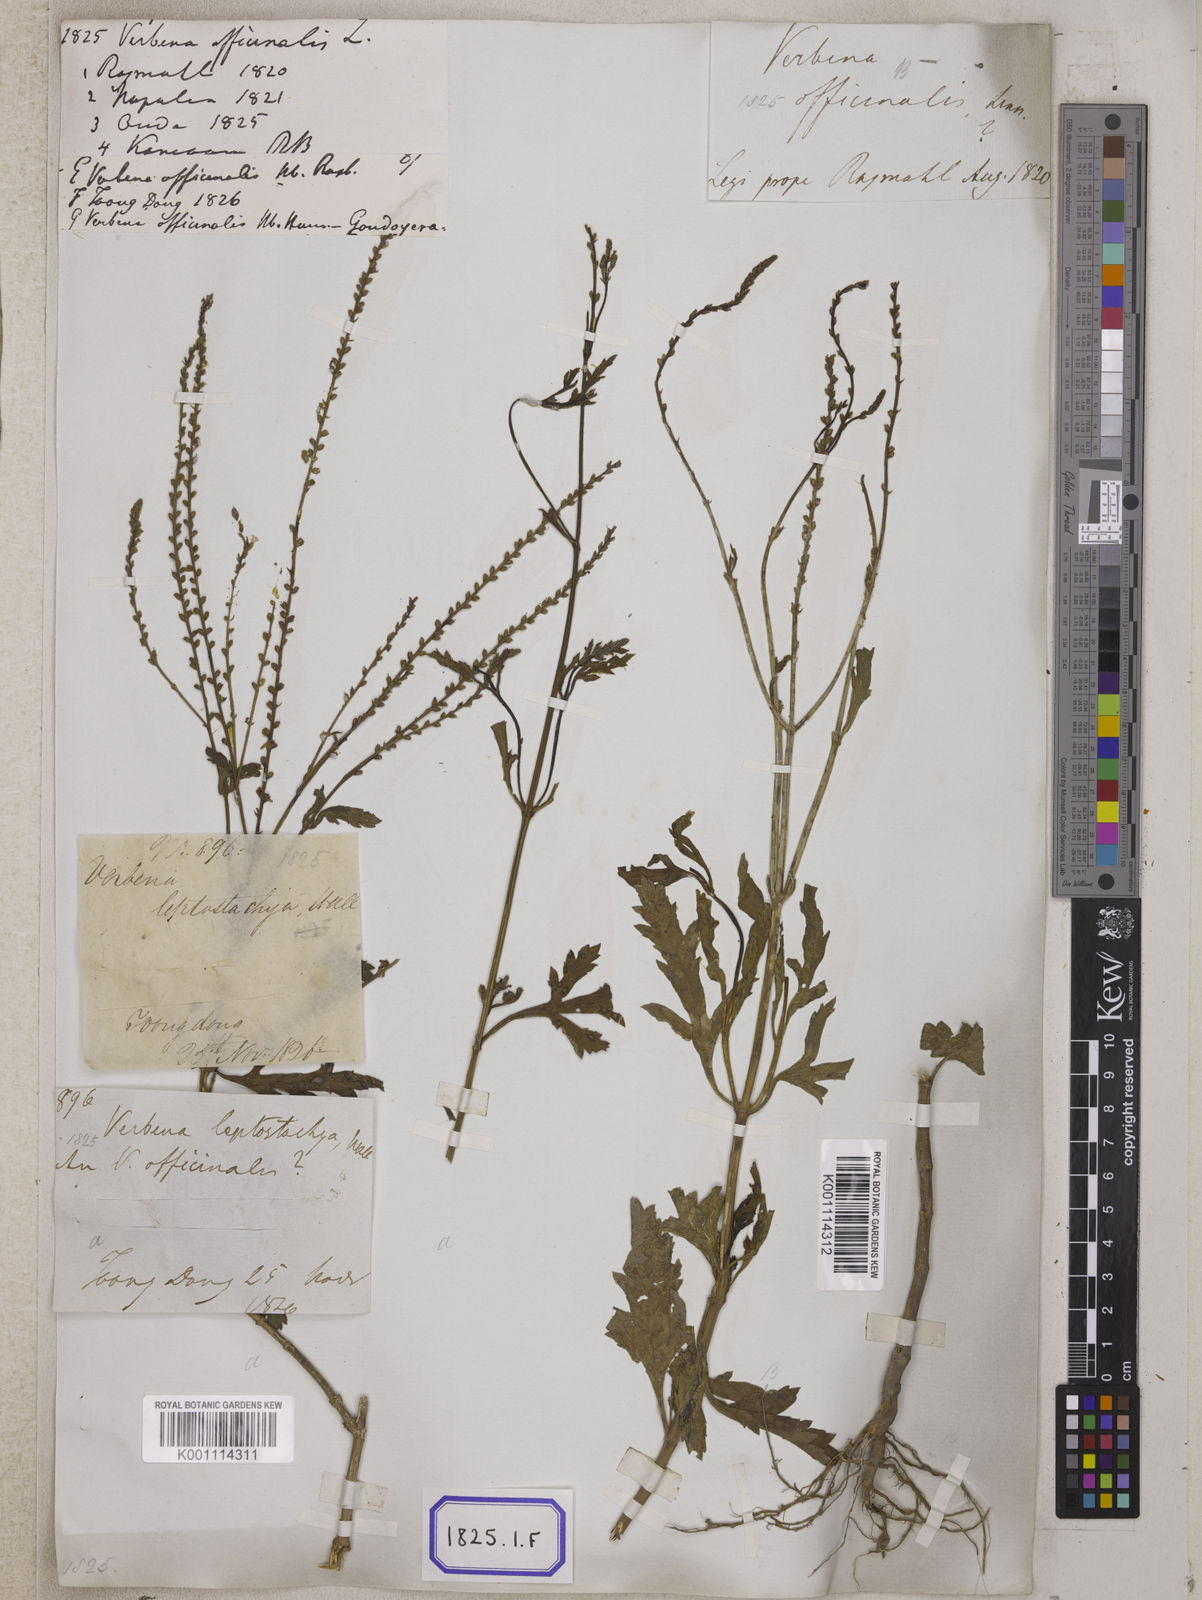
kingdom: Plantae
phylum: Tracheophyta
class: Magnoliopsida
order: Lamiales
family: Verbenaceae
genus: Verbena
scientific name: Verbena officinalis
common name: Vervain
